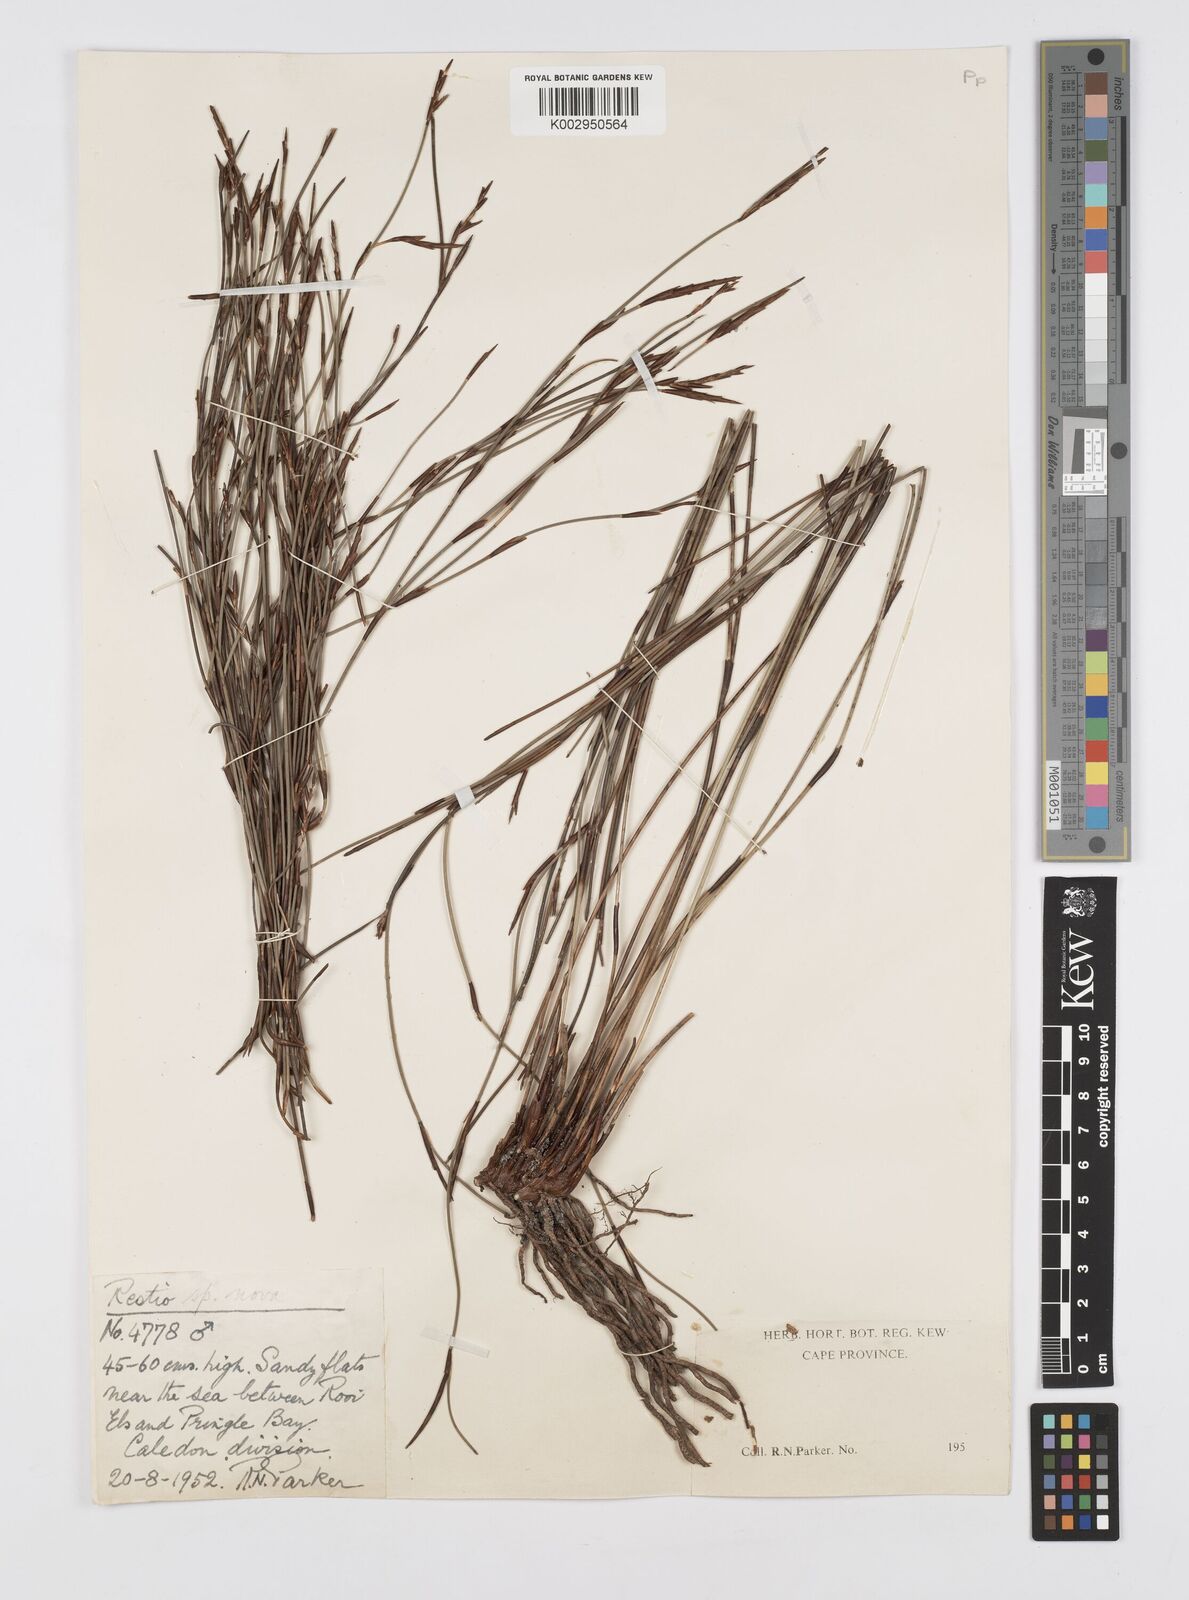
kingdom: Plantae
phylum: Tracheophyta
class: Liliopsida
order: Poales
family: Restionaceae
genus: Soroveta
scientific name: Soroveta ambigua
